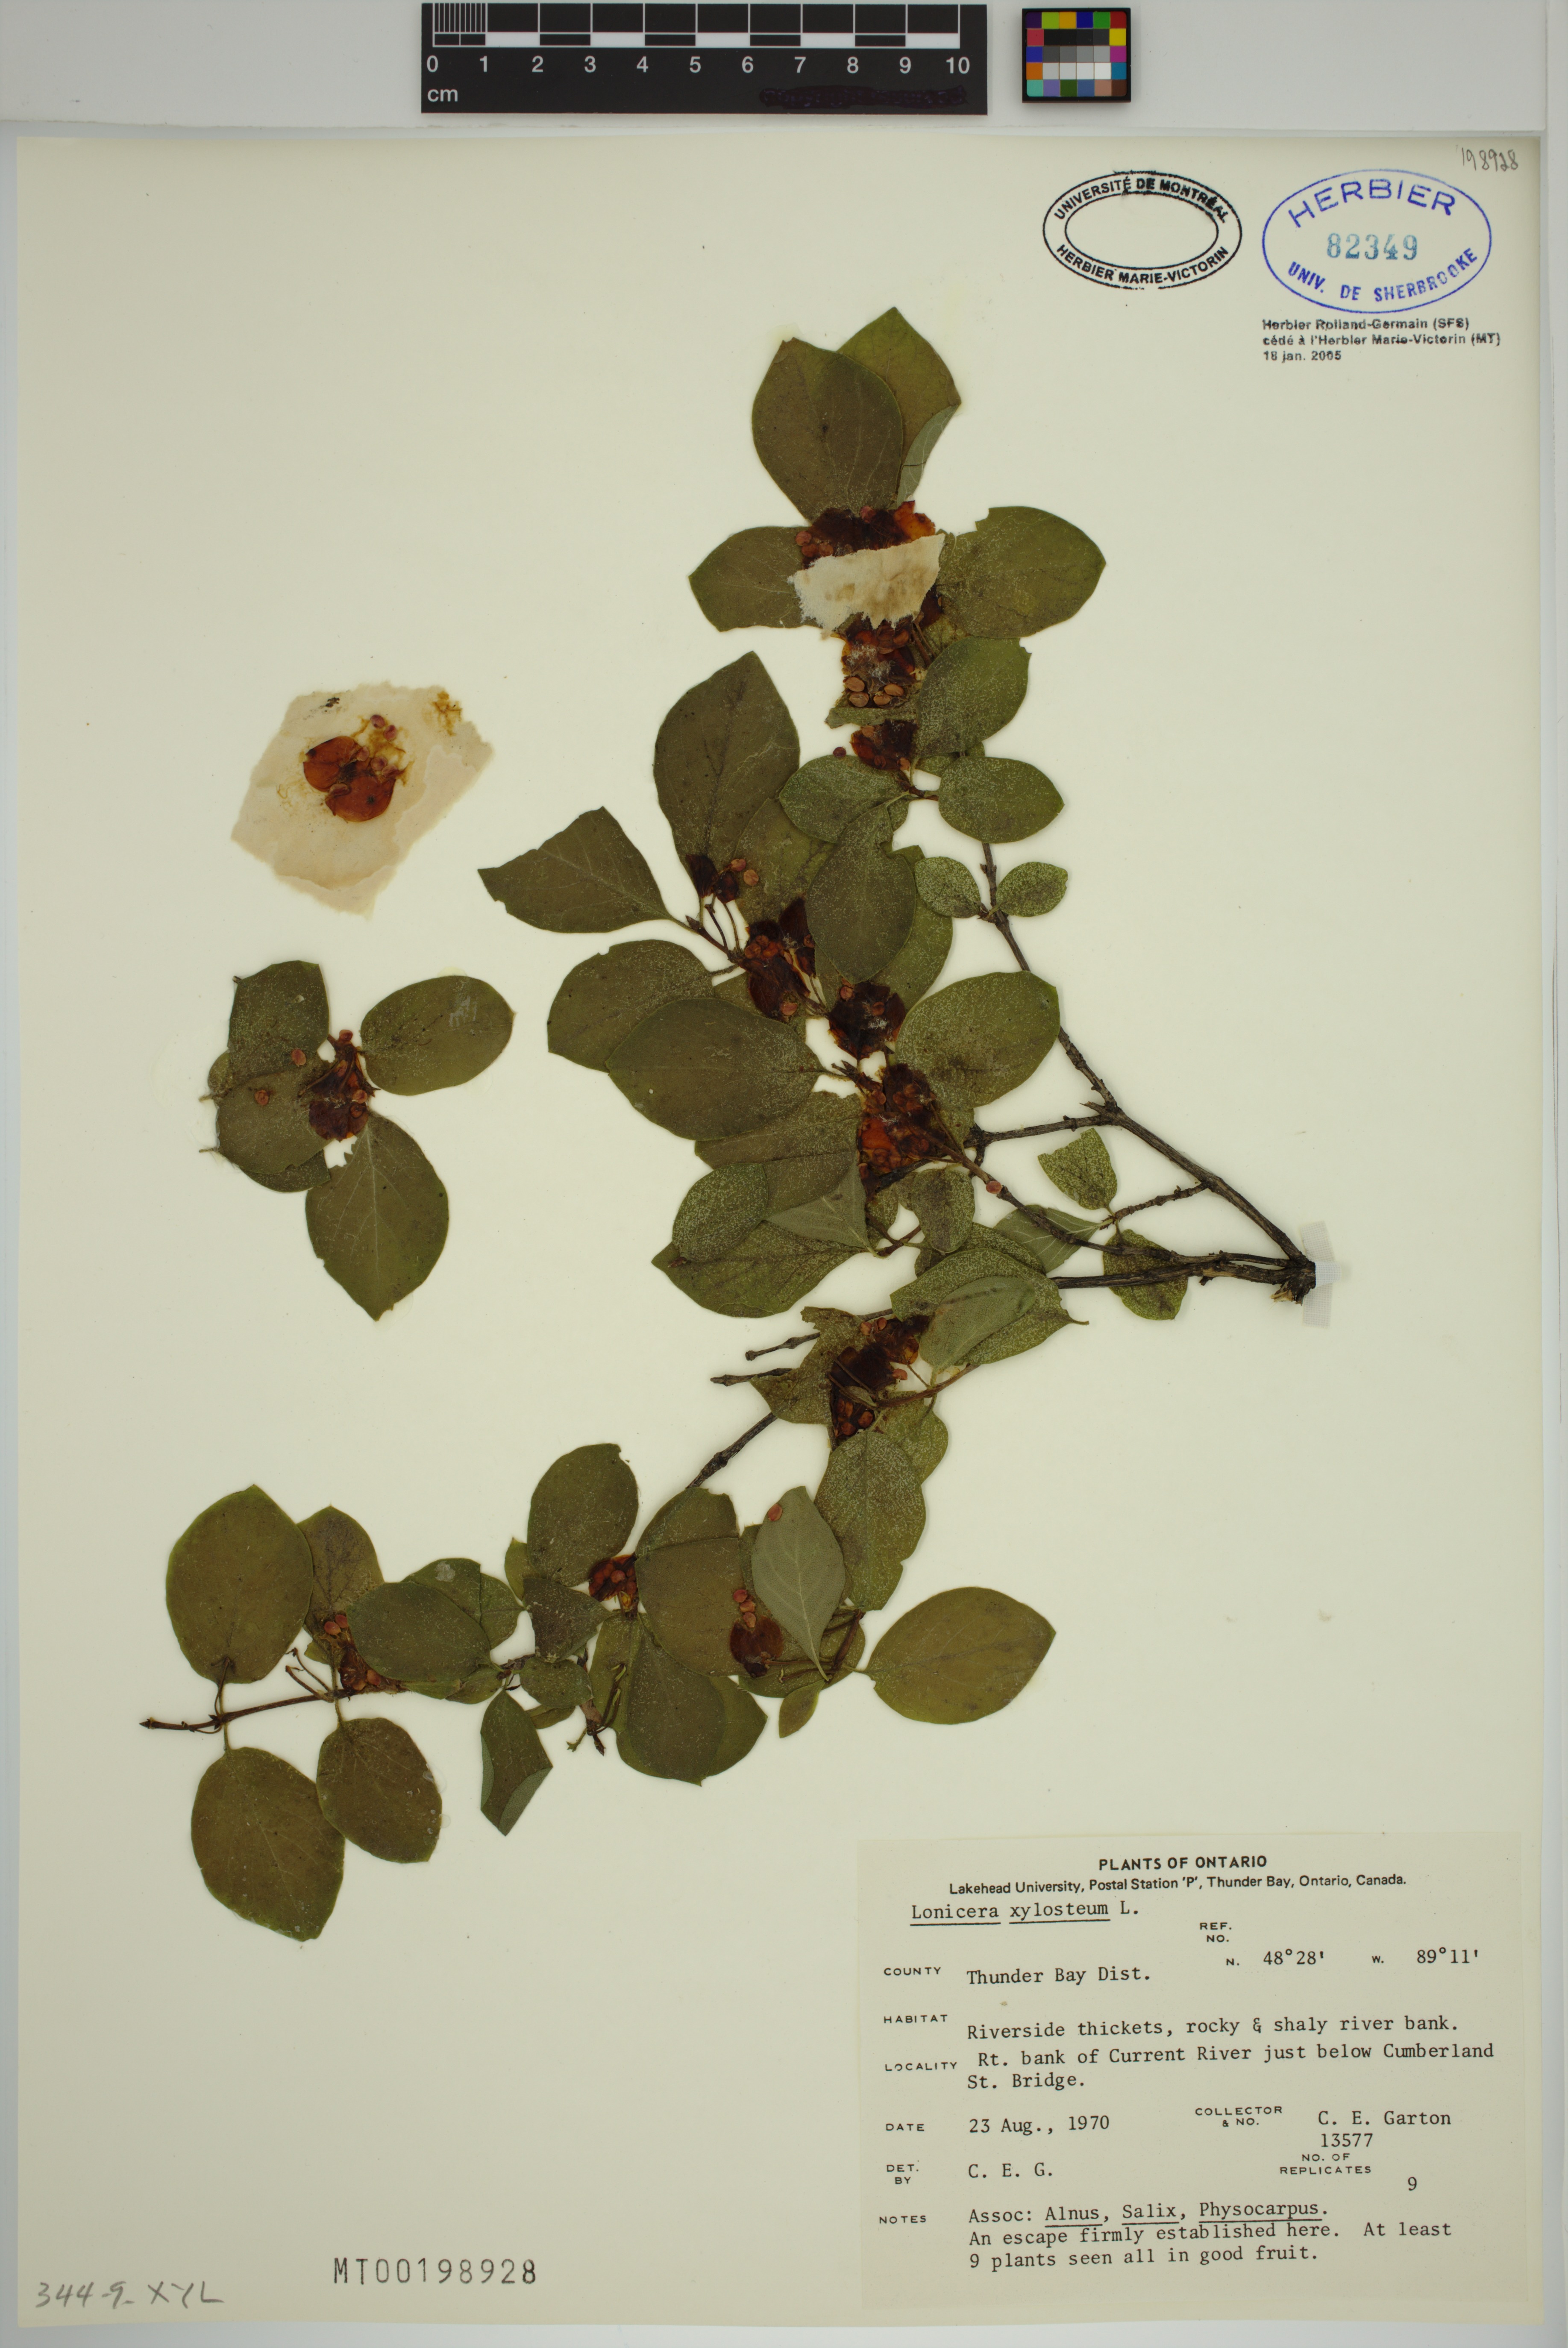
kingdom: Plantae
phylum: Tracheophyta
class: Magnoliopsida
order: Dipsacales
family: Caprifoliaceae
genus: Lonicera
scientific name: Lonicera tatarica
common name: Tatarian honeysuckle
